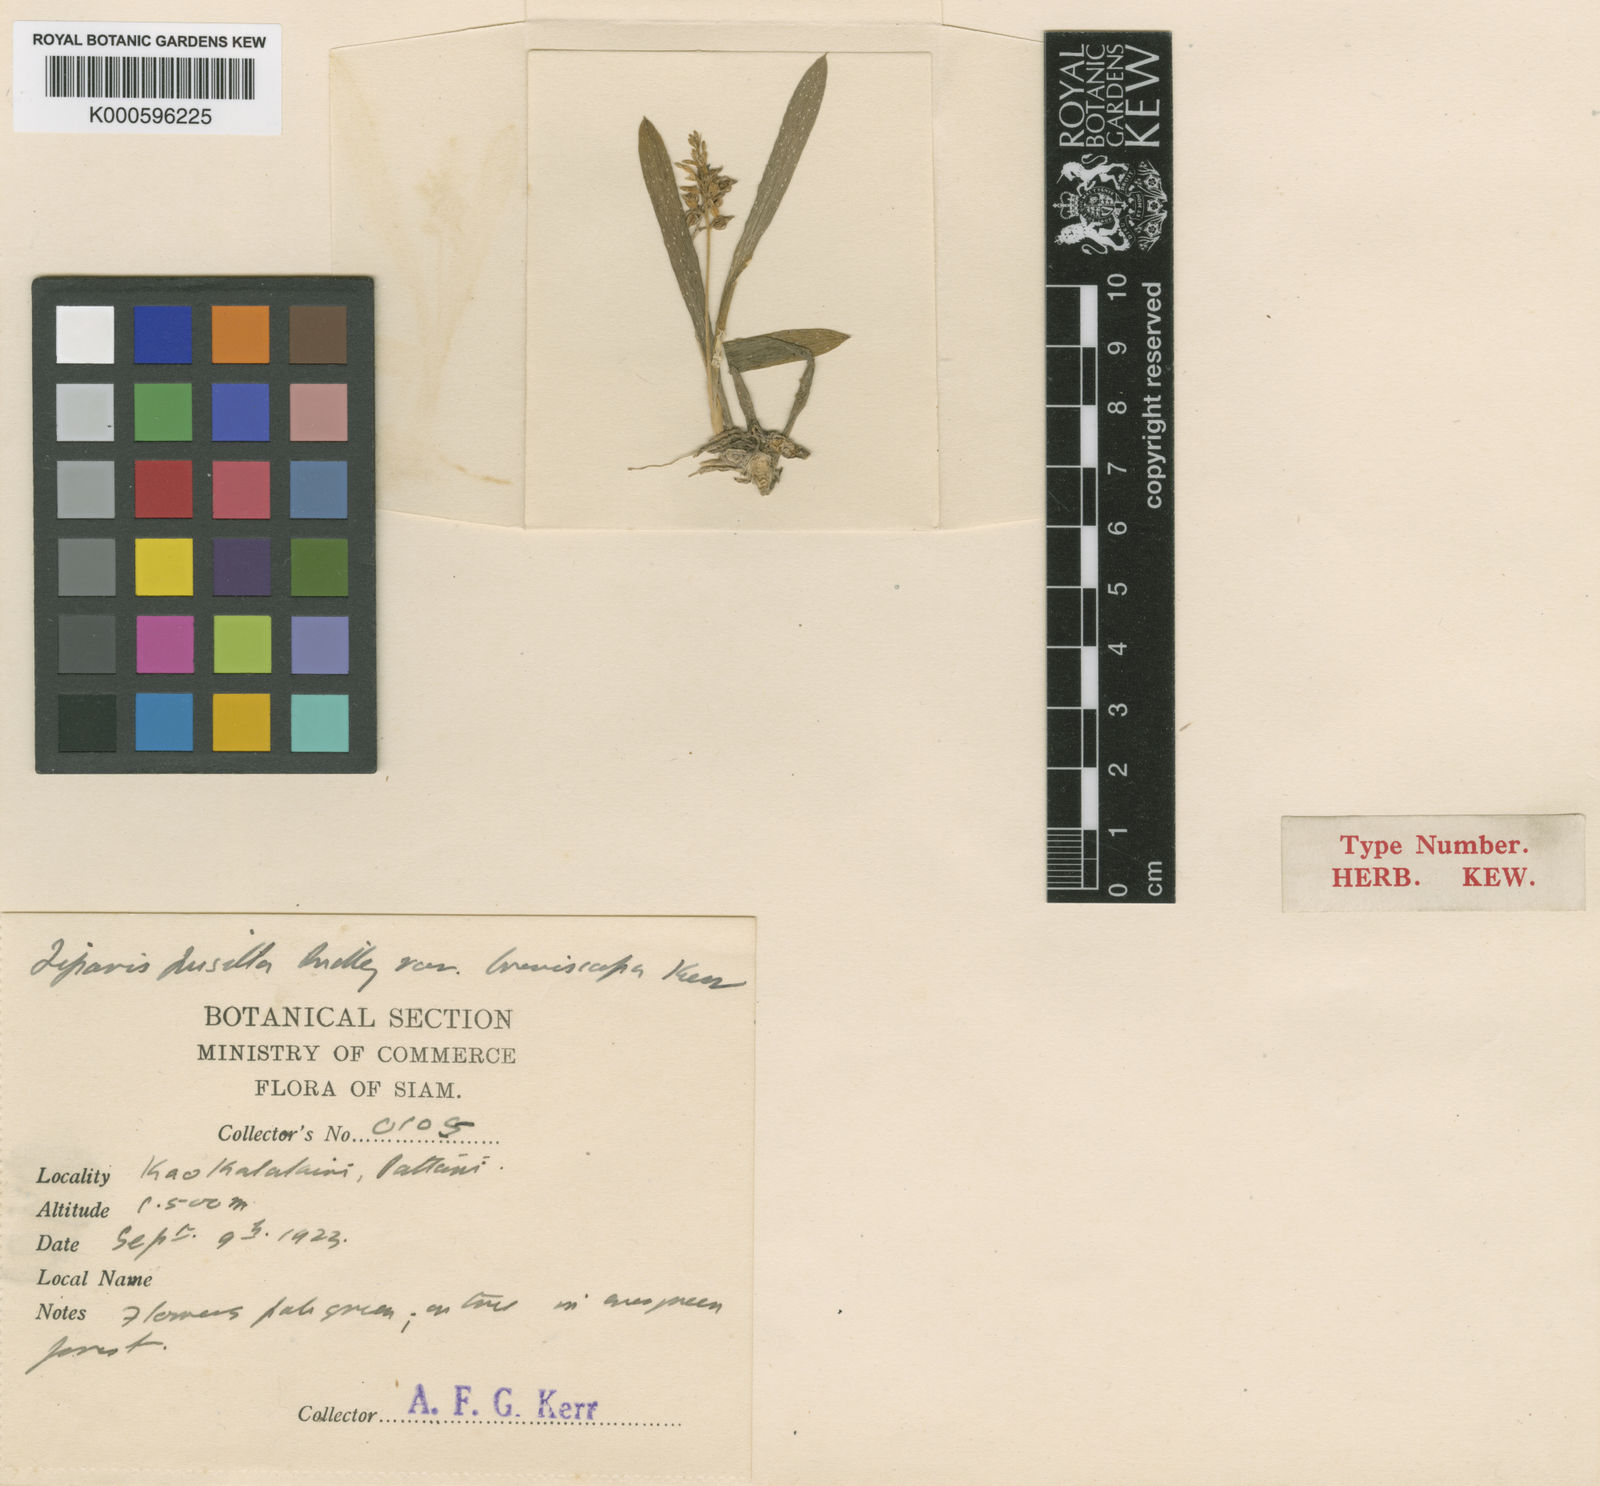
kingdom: Plantae
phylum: Tracheophyta
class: Liliopsida
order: Asparagales
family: Orchidaceae
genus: Liparis
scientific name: Liparis
